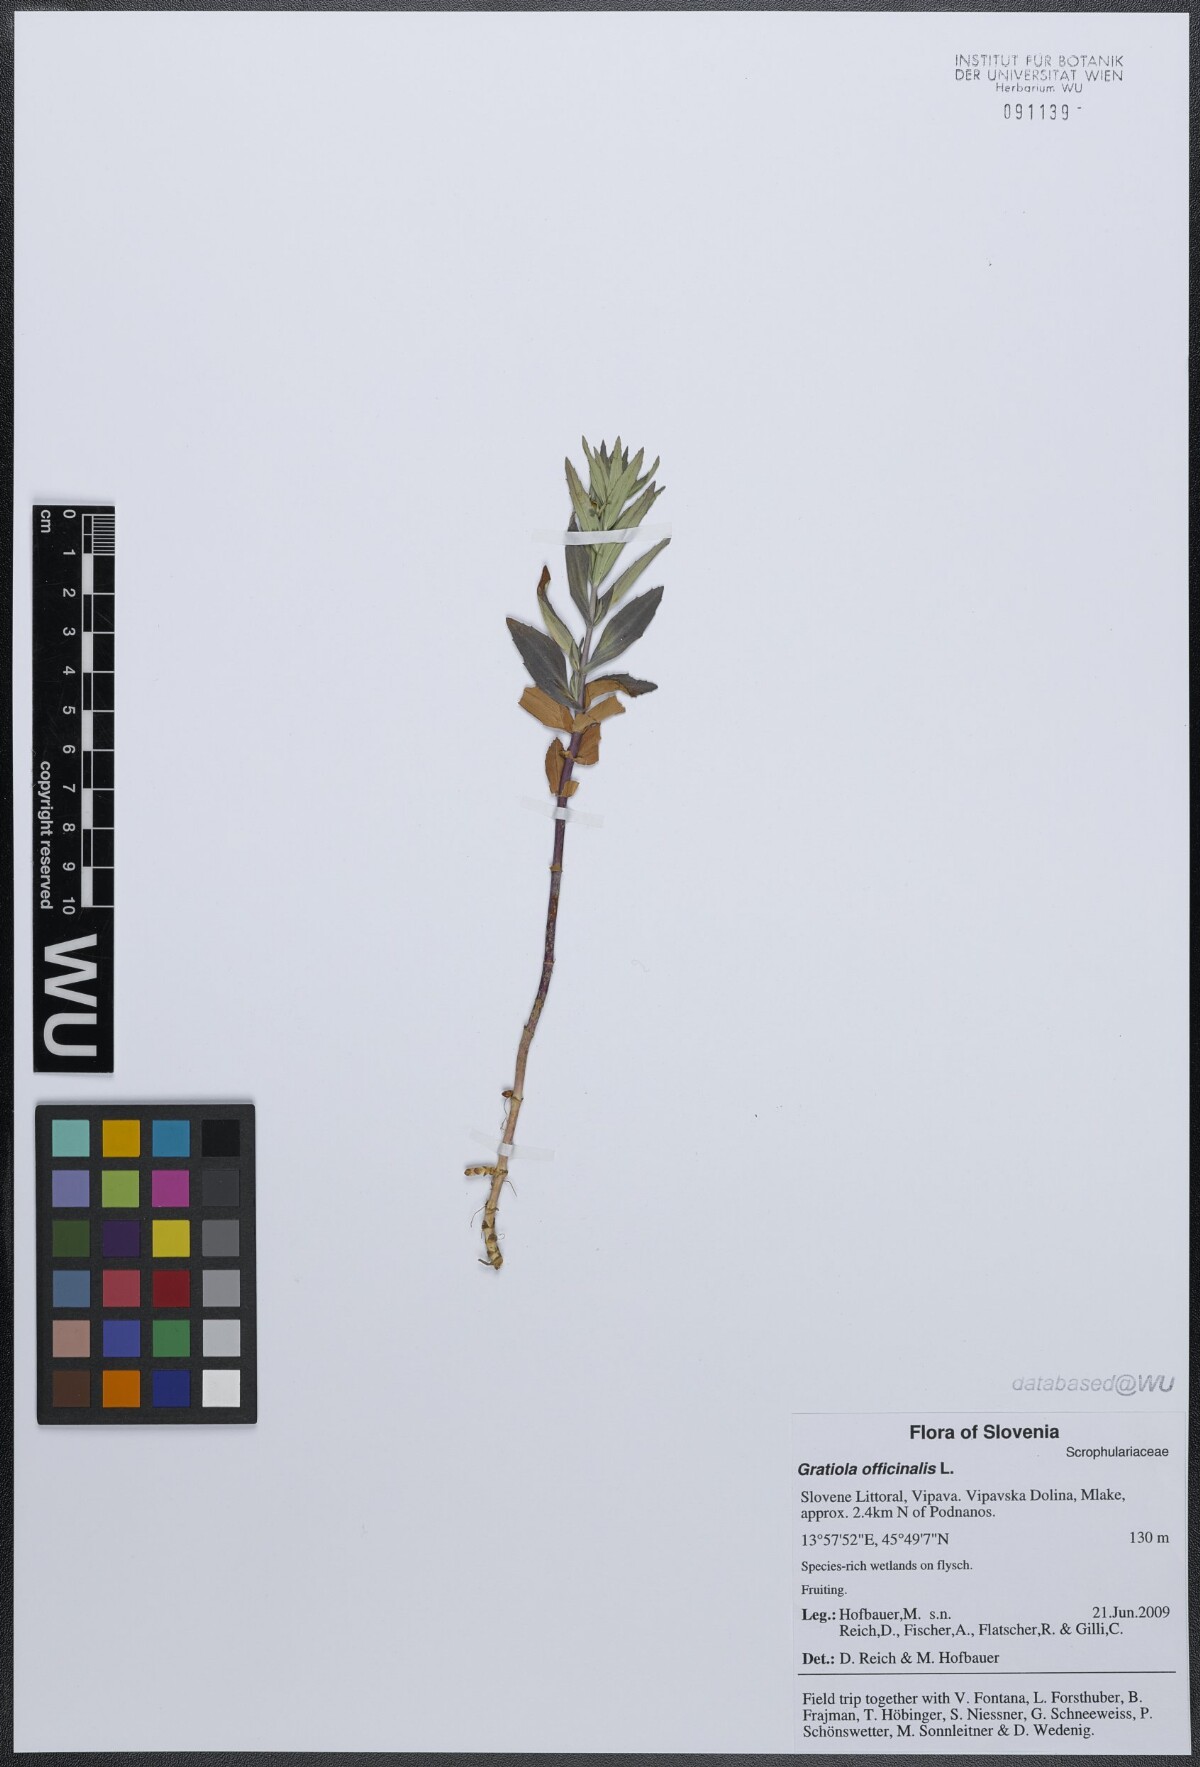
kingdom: Plantae
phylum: Tracheophyta
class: Magnoliopsida
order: Lamiales
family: Plantaginaceae
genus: Gratiola
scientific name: Gratiola officinalis
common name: Gratiola
